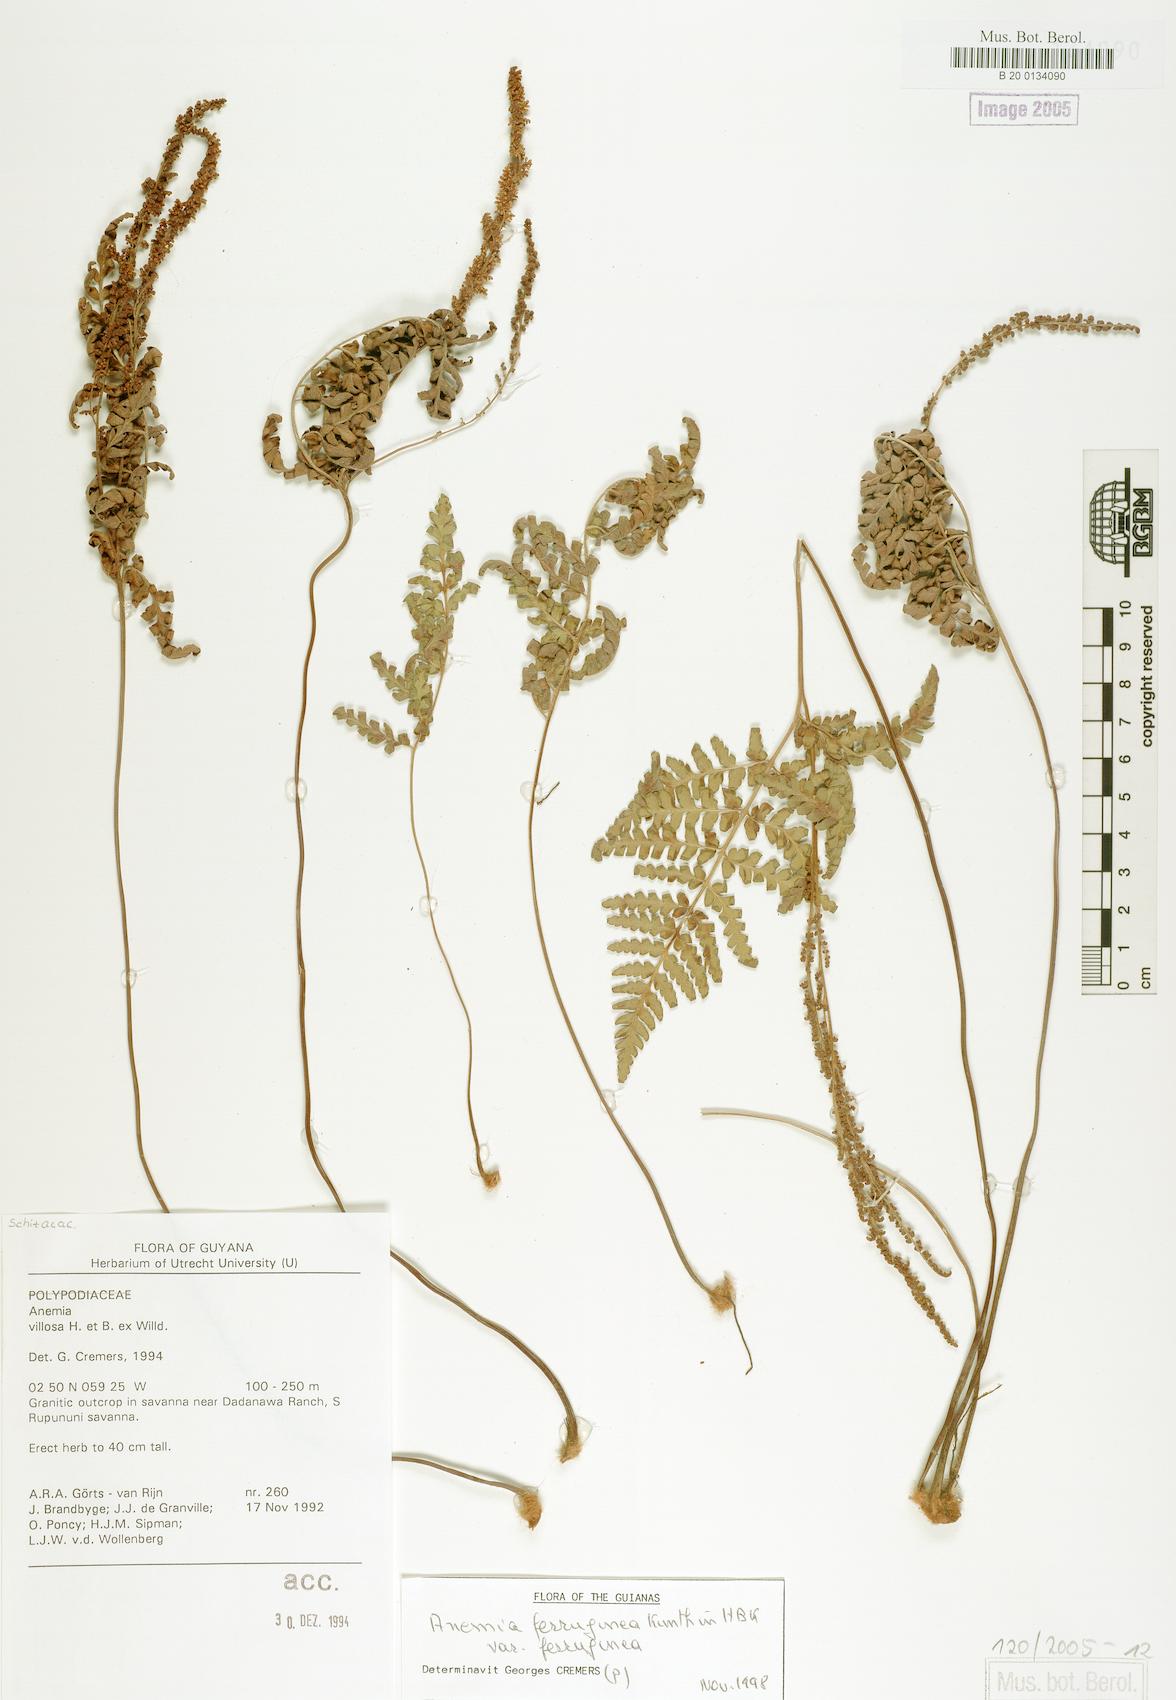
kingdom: Plantae
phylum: Tracheophyta
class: Polypodiopsida
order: Schizaeales
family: Anemiaceae
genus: Anemia
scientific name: Anemia ferruginea
